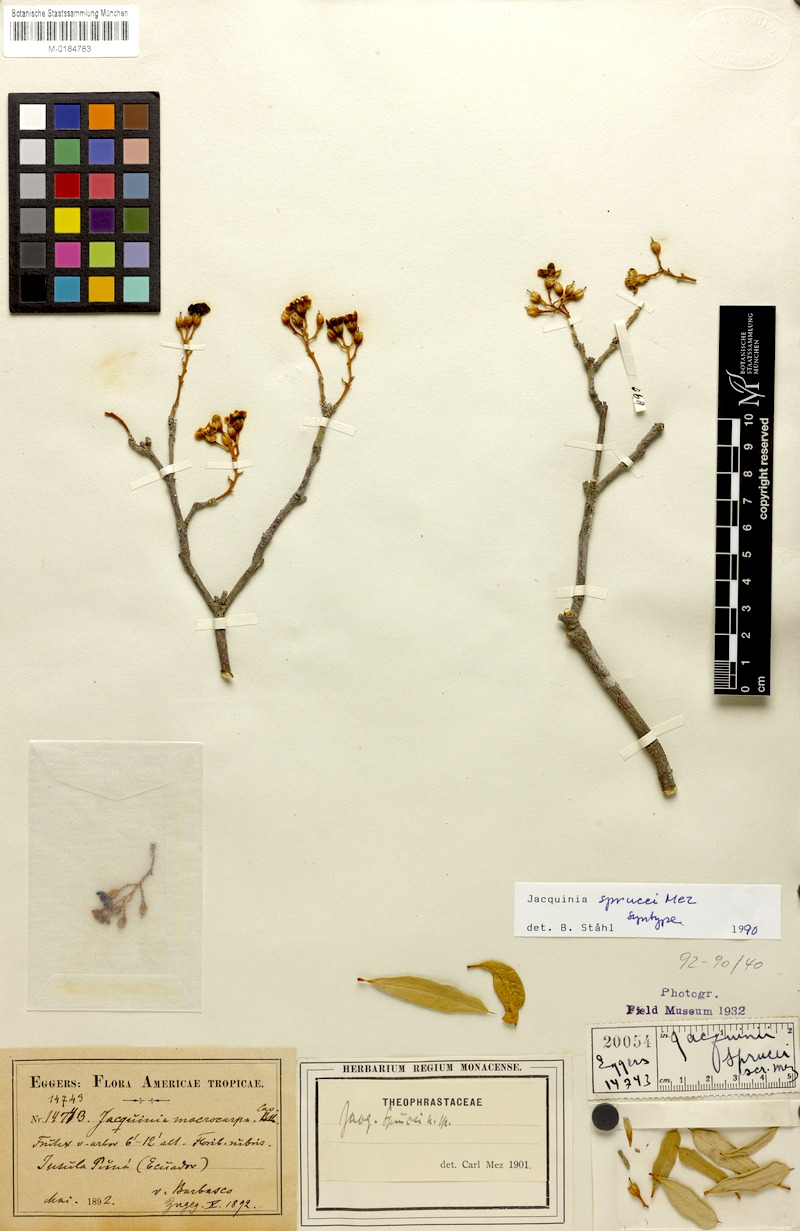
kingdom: Plantae
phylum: Tracheophyta
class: Magnoliopsida
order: Ericales
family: Primulaceae
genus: Bonellia
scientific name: Bonellia sprucei
